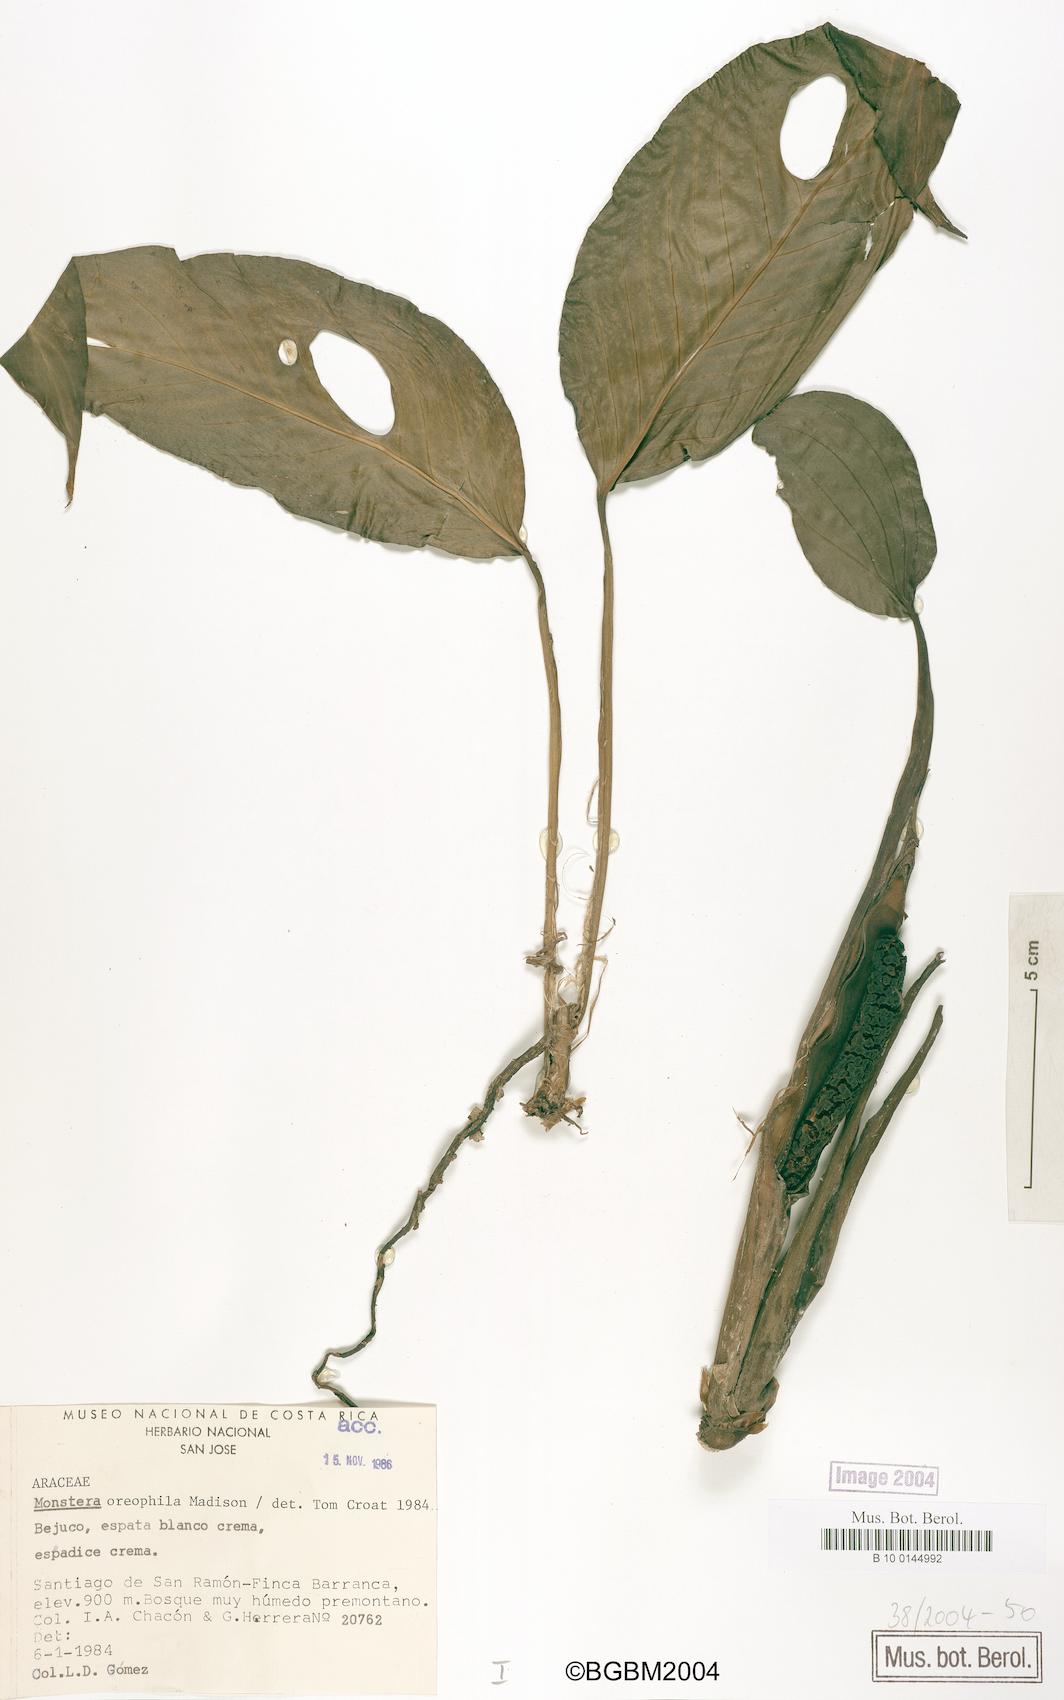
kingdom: Plantae
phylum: Tracheophyta
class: Liliopsida
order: Alismatales
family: Araceae
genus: Monstera
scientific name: Monstera oreophila
